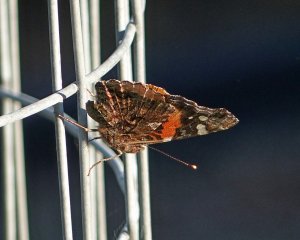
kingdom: Animalia
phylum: Arthropoda
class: Insecta
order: Lepidoptera
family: Nymphalidae
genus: Vanessa
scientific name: Vanessa atalanta
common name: Red Admiral
